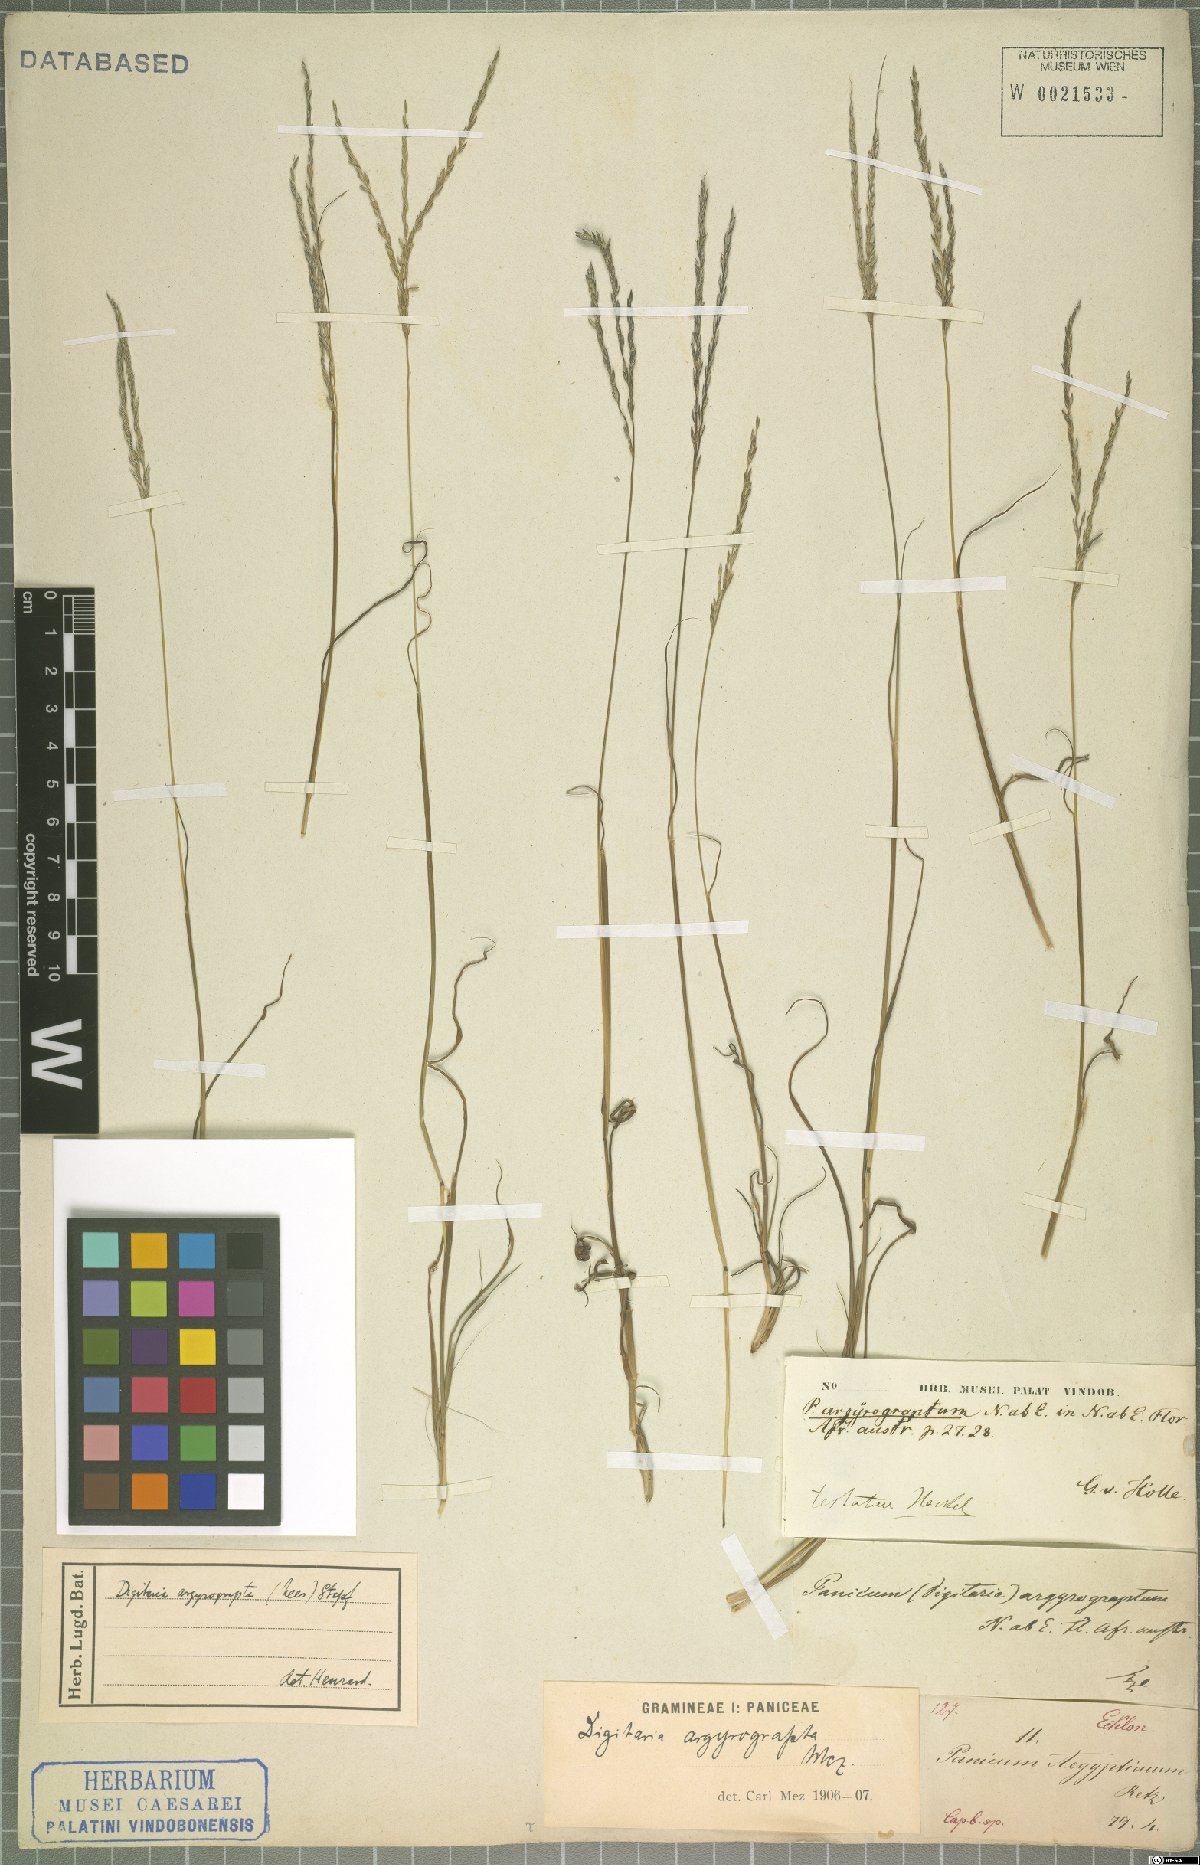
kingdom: Plantae
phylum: Tracheophyta
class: Liliopsida
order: Poales
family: Poaceae
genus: Digitaria
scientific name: Digitaria argyrograpta
